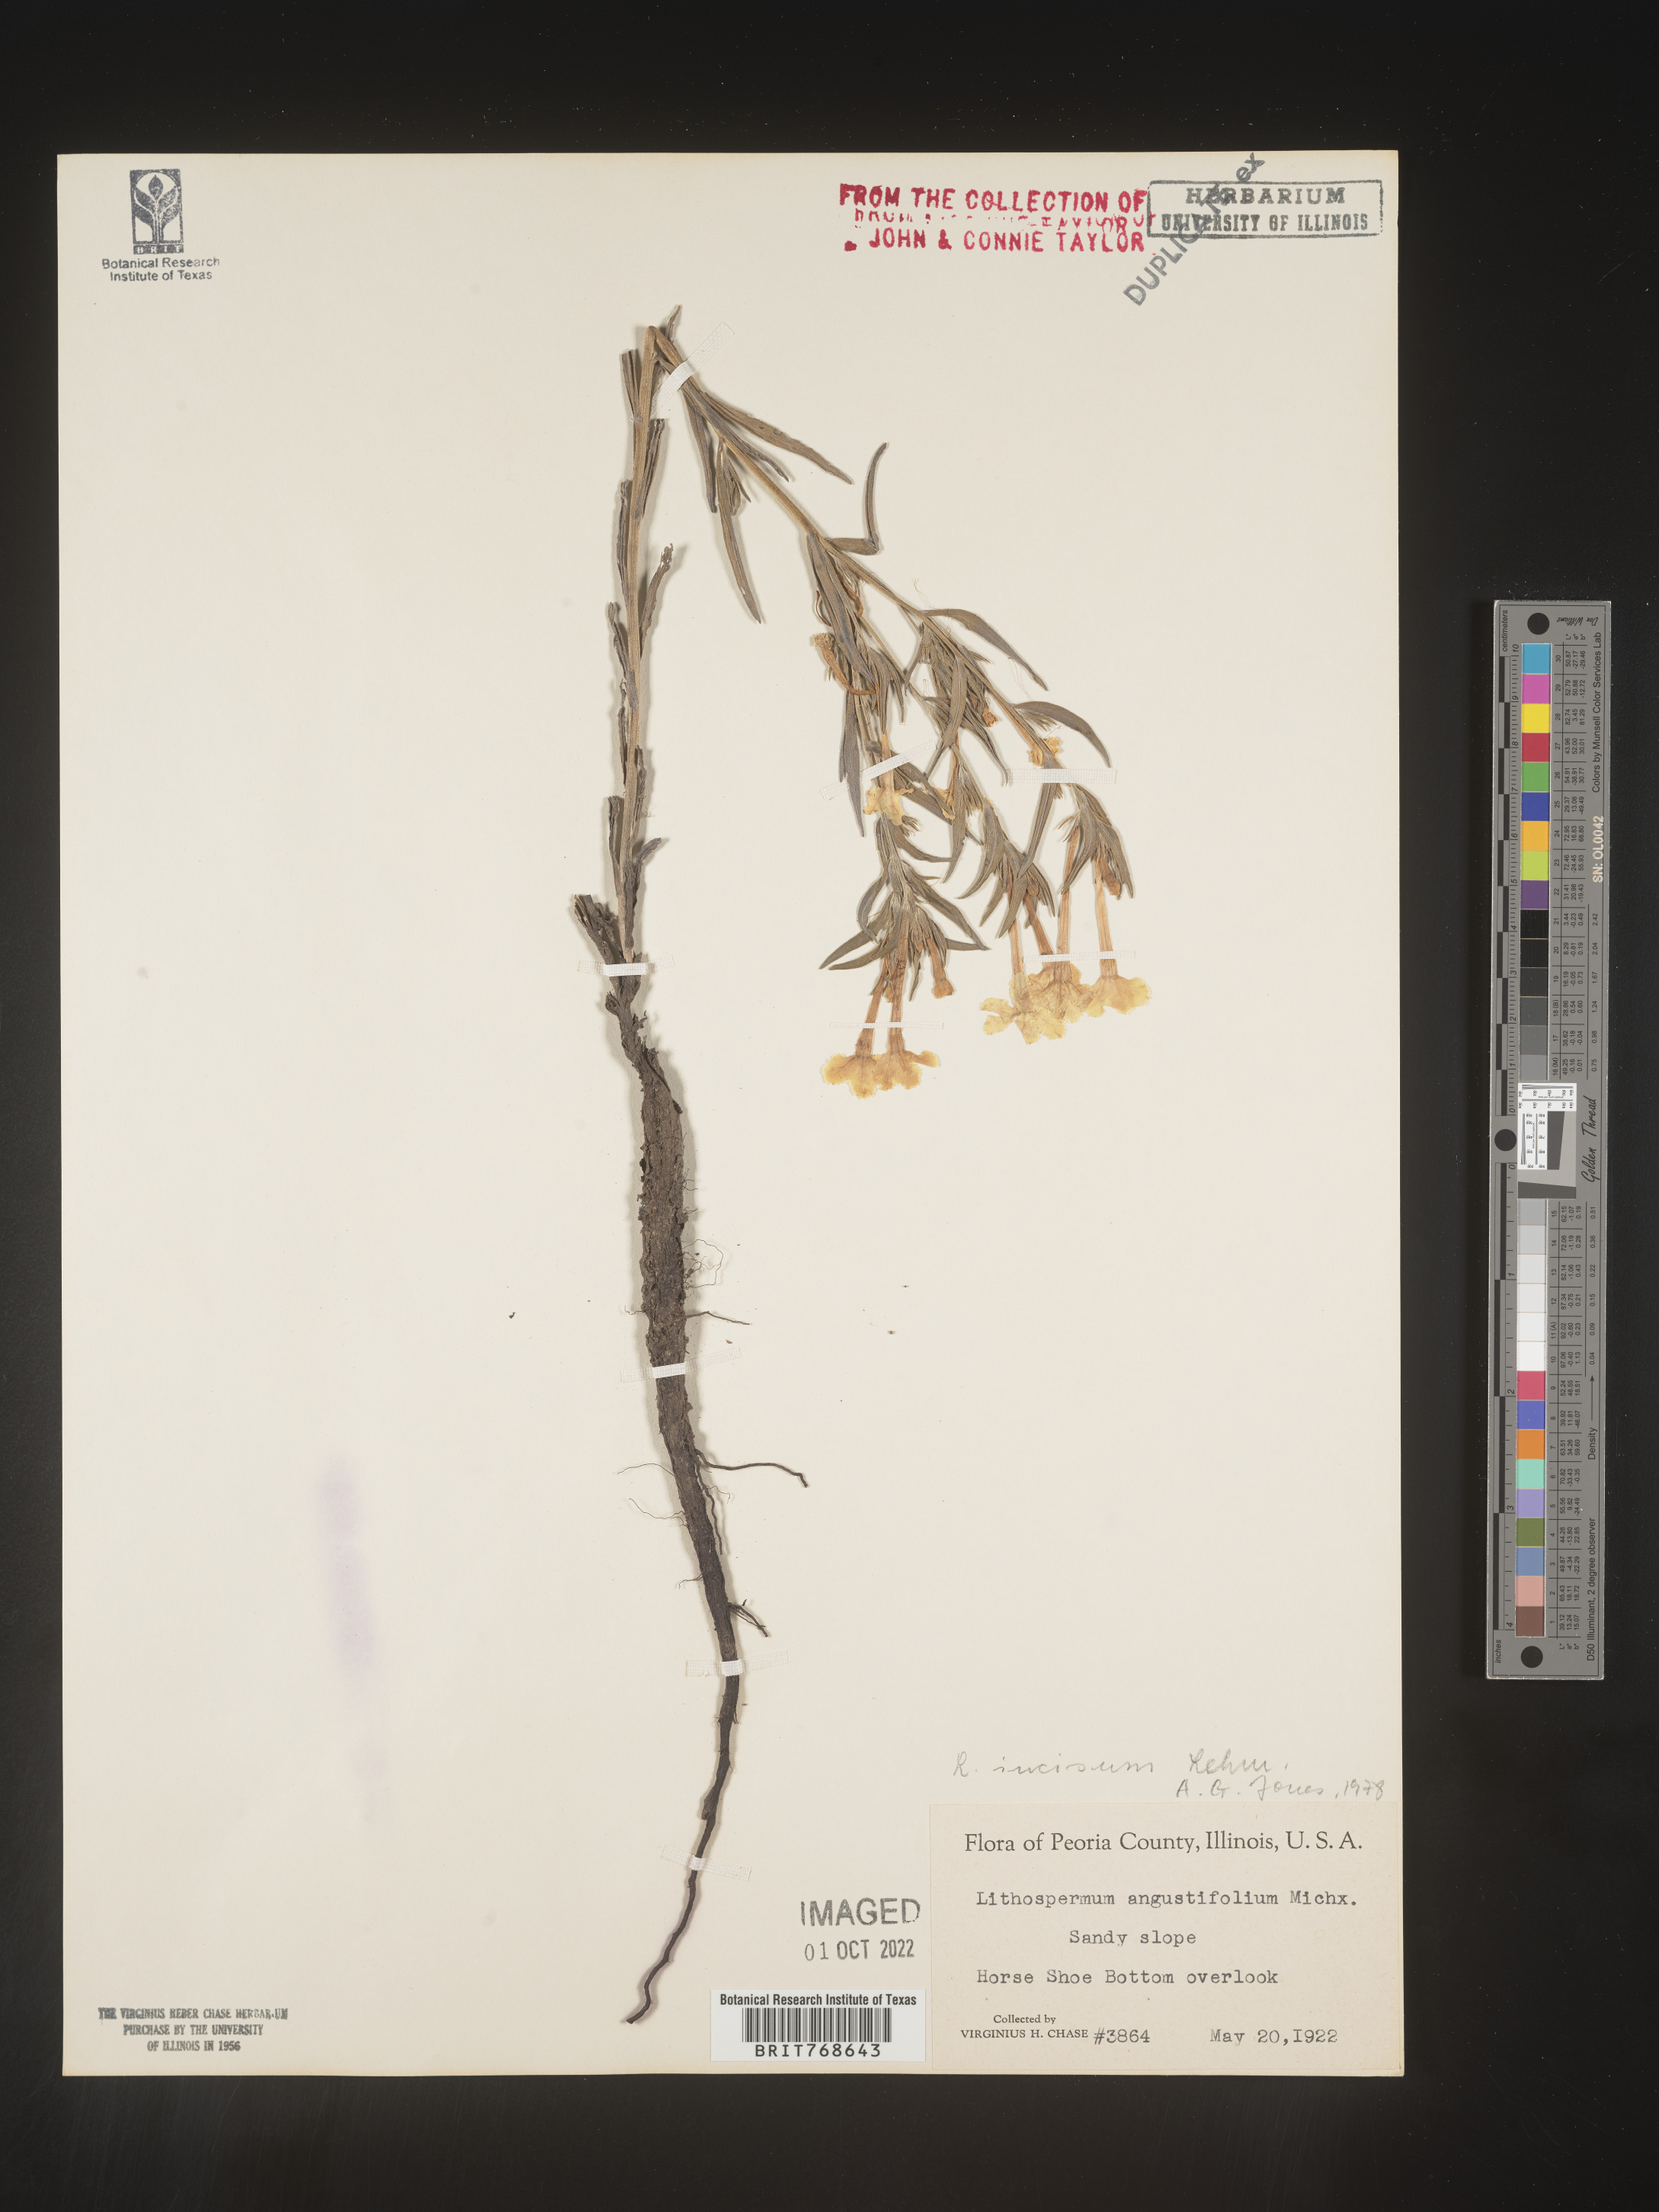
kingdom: Plantae
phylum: Tracheophyta
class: Magnoliopsida
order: Boraginales
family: Boraginaceae
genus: Lithospermum
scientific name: Lithospermum incisum
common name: Fringed gromwell
